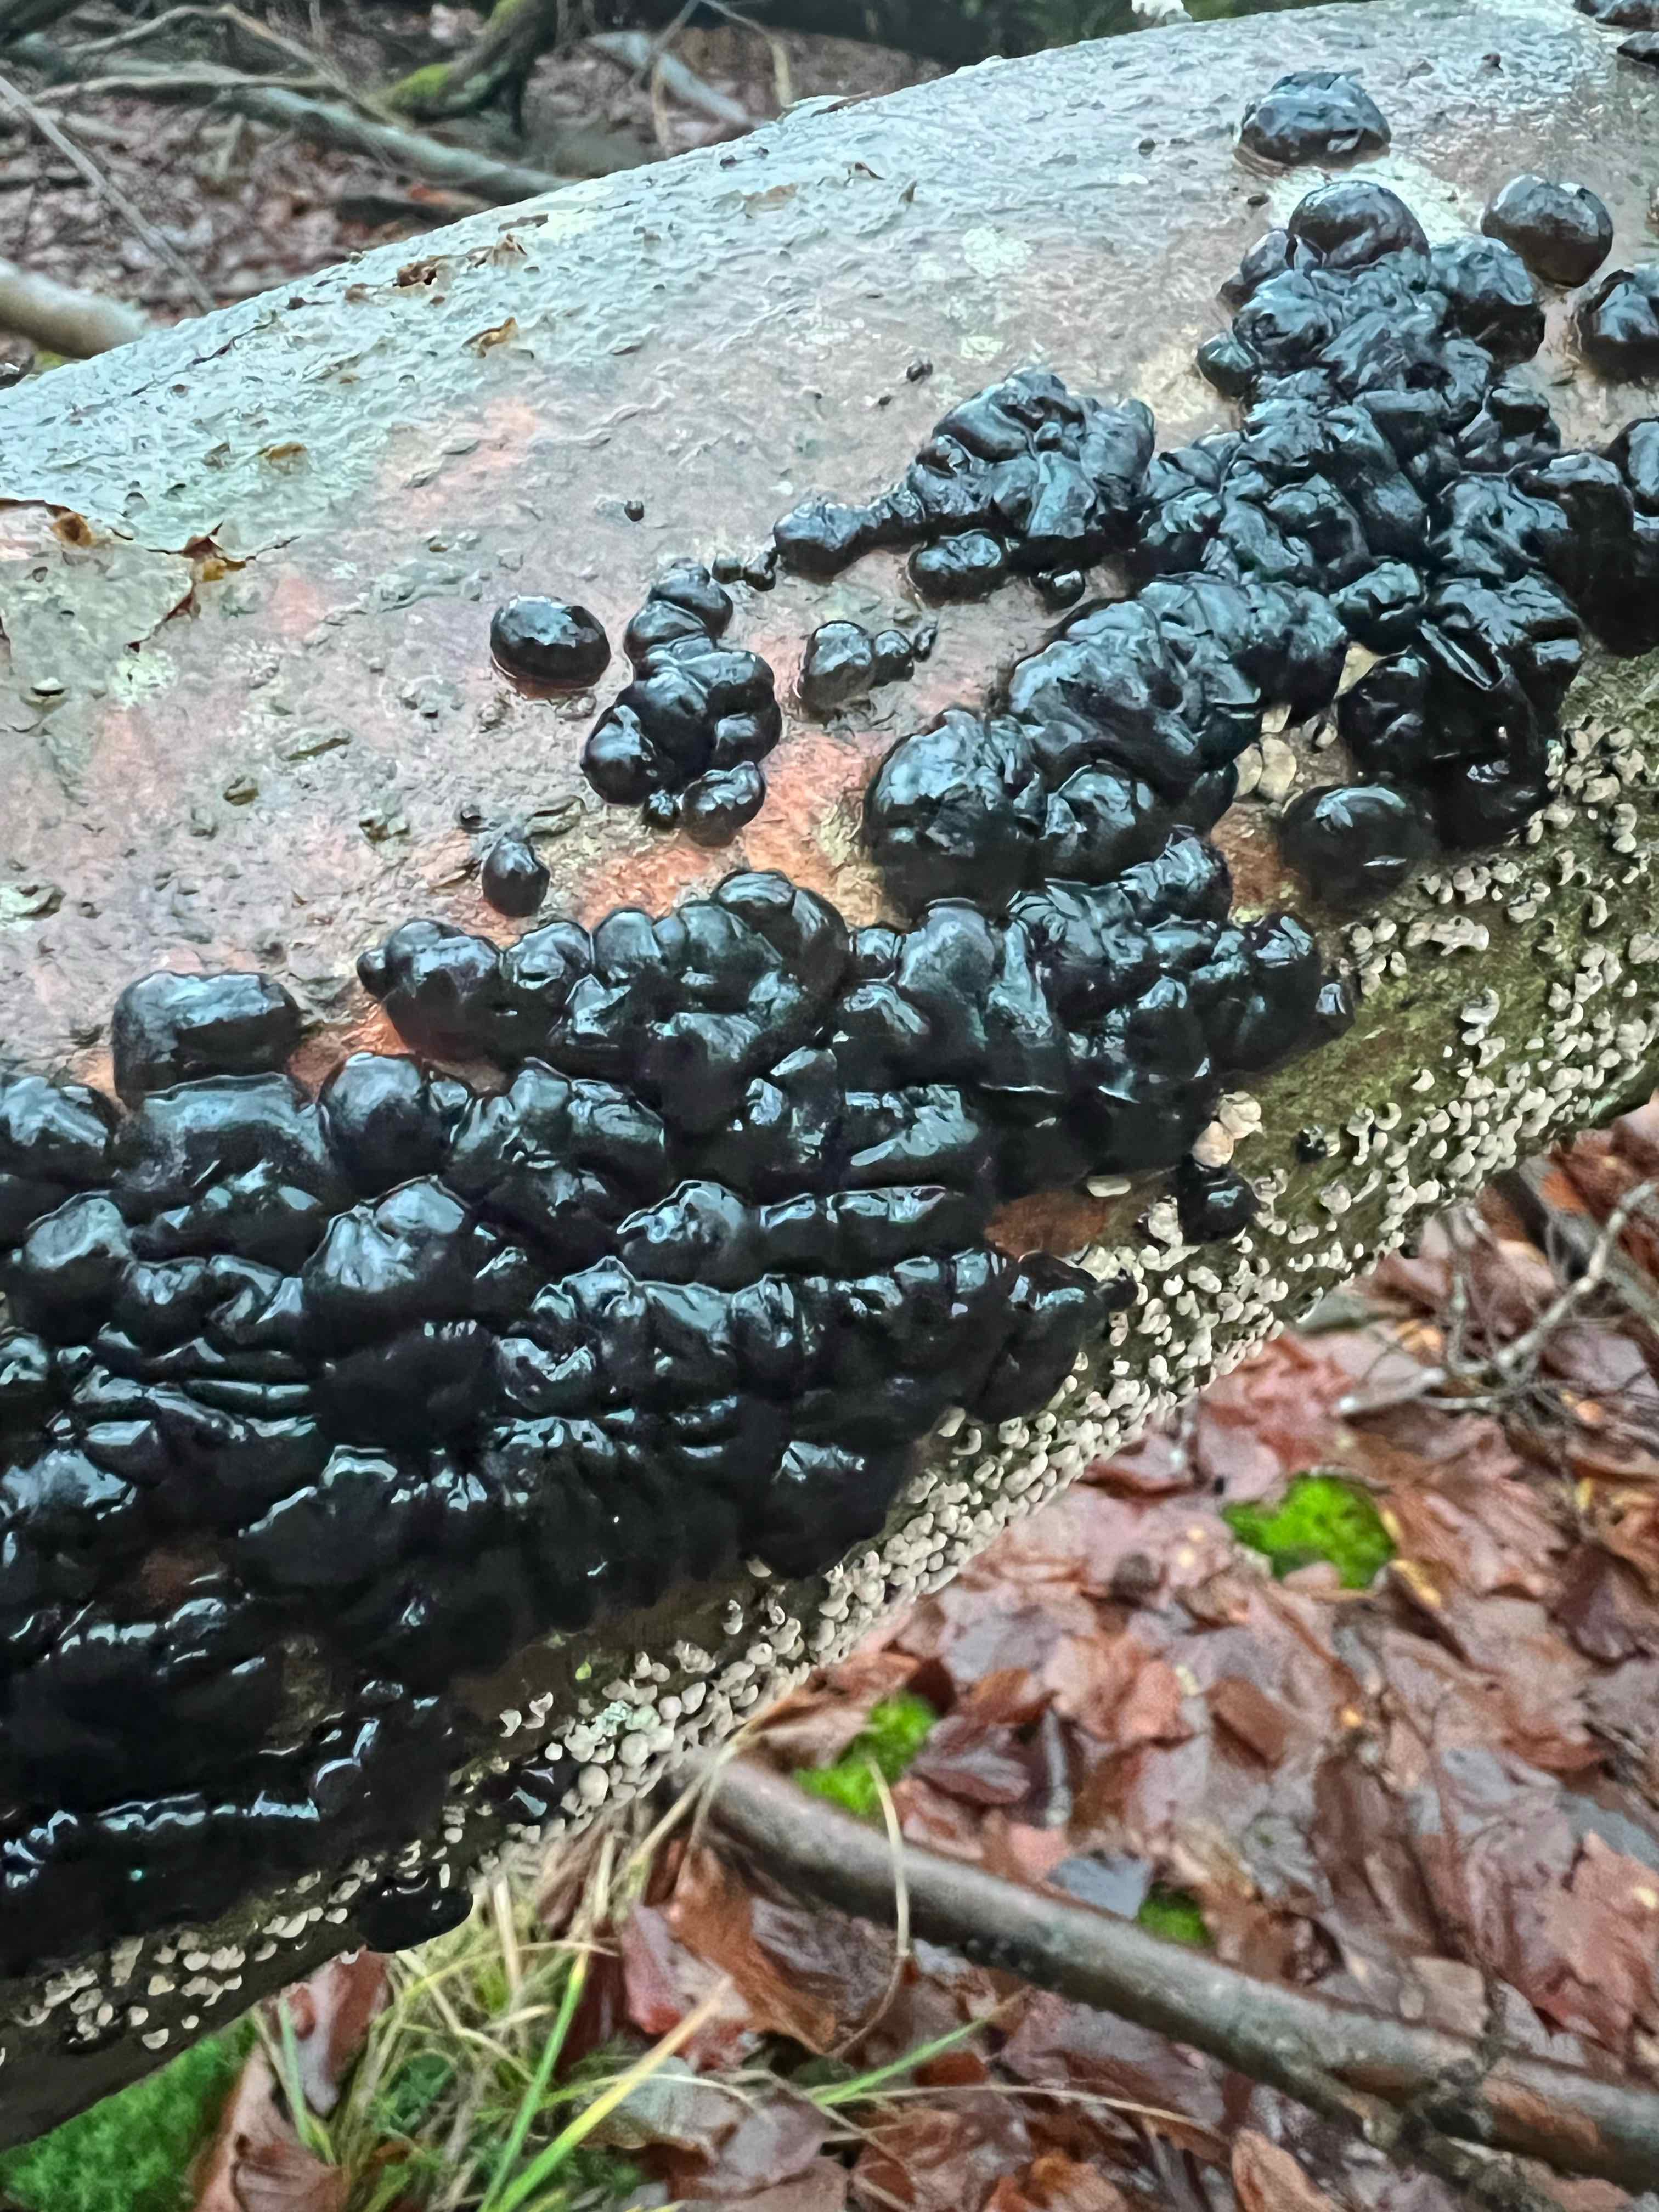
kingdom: Fungi
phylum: Basidiomycota
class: Agaricomycetes
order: Auriculariales
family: Auriculariaceae
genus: Exidia
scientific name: Exidia nigricans
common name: almindelig bævretop
